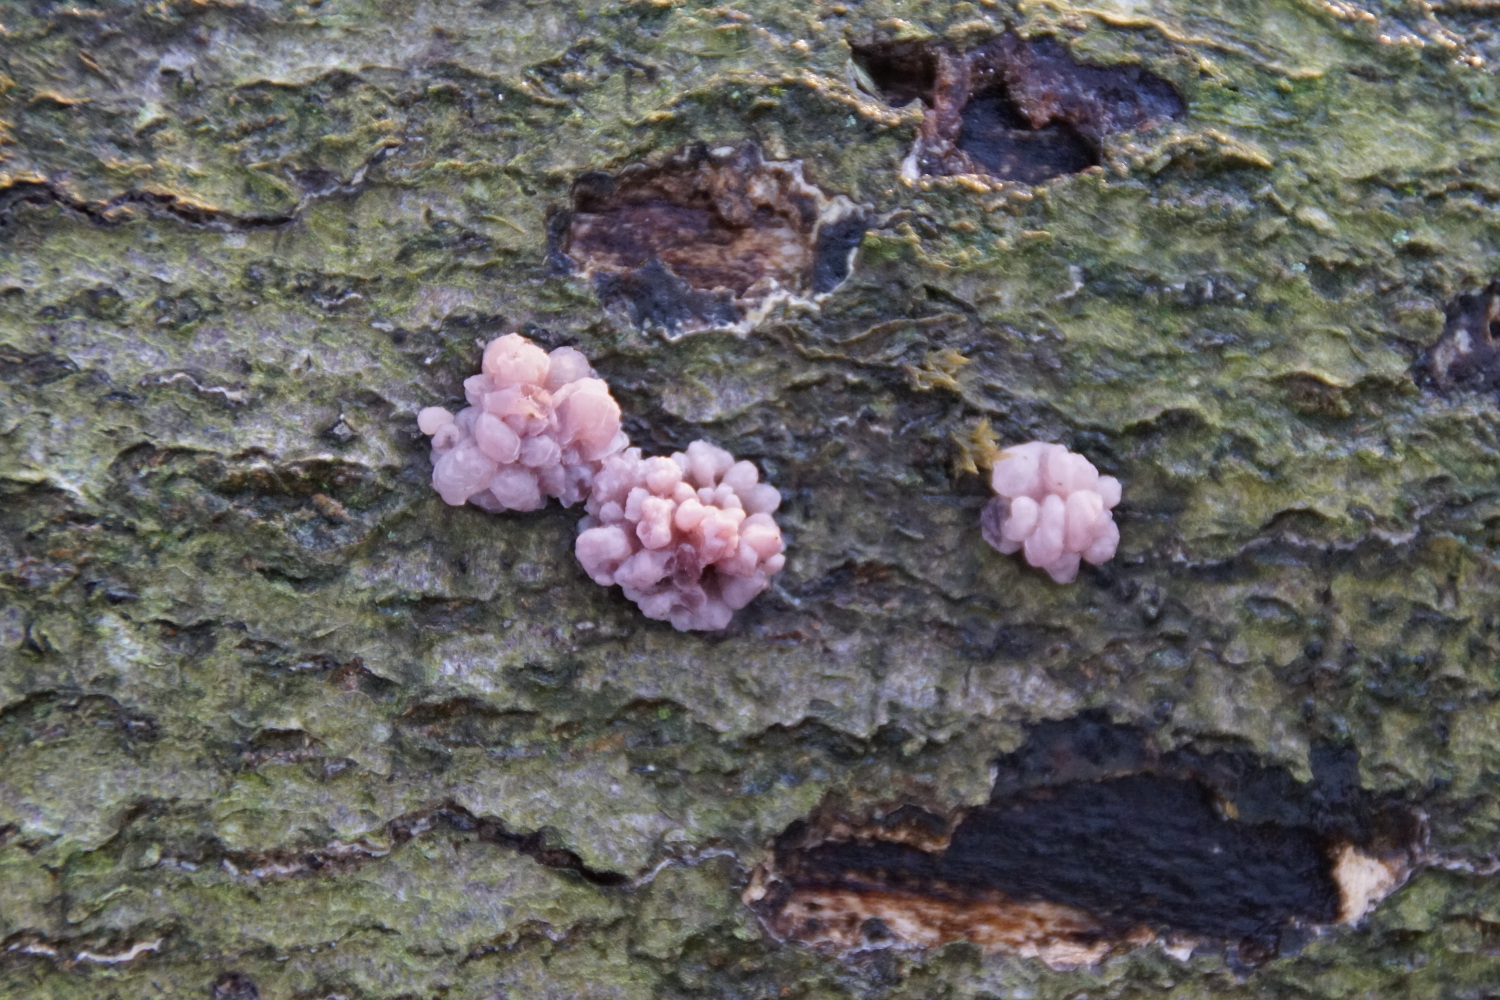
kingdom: Fungi
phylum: Ascomycota
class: Leotiomycetes
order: Helotiales
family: Gelatinodiscaceae
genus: Ascocoryne
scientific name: Ascocoryne sarcoides
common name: rødlilla sejskive
